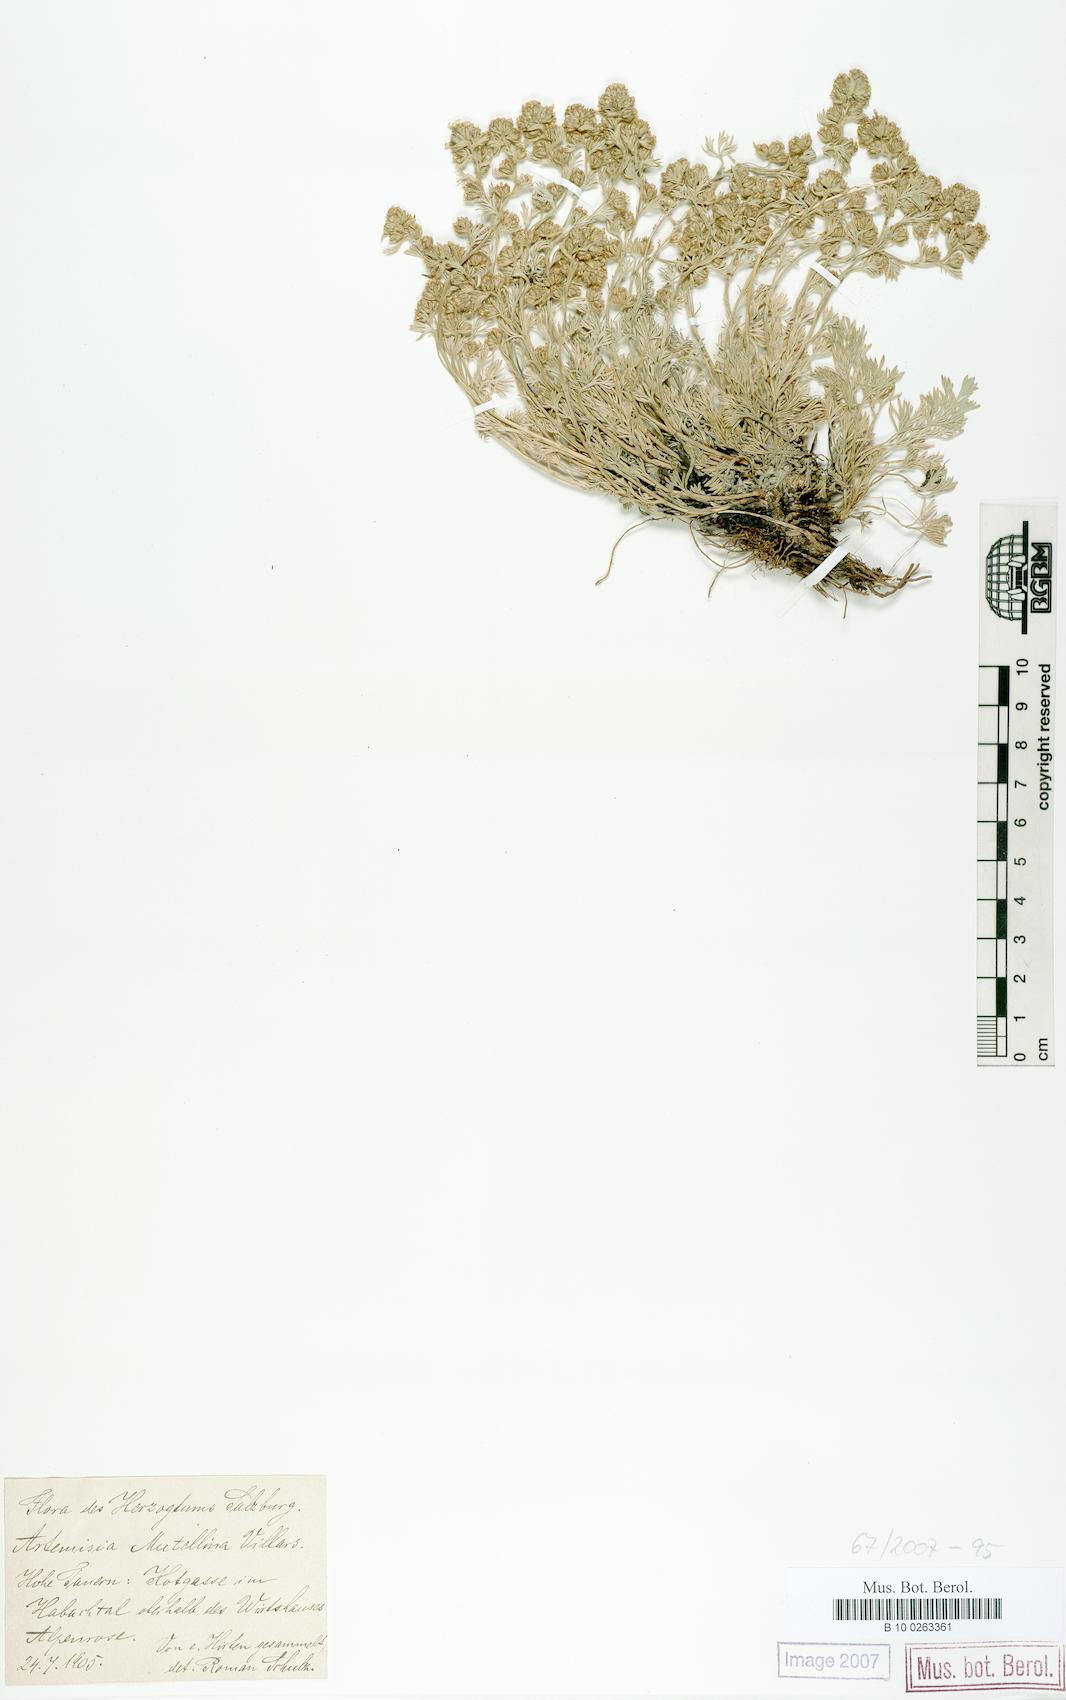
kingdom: Plantae
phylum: Tracheophyta
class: Magnoliopsida
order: Asterales
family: Asteraceae
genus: Artemisia
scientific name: Artemisia mutellina
